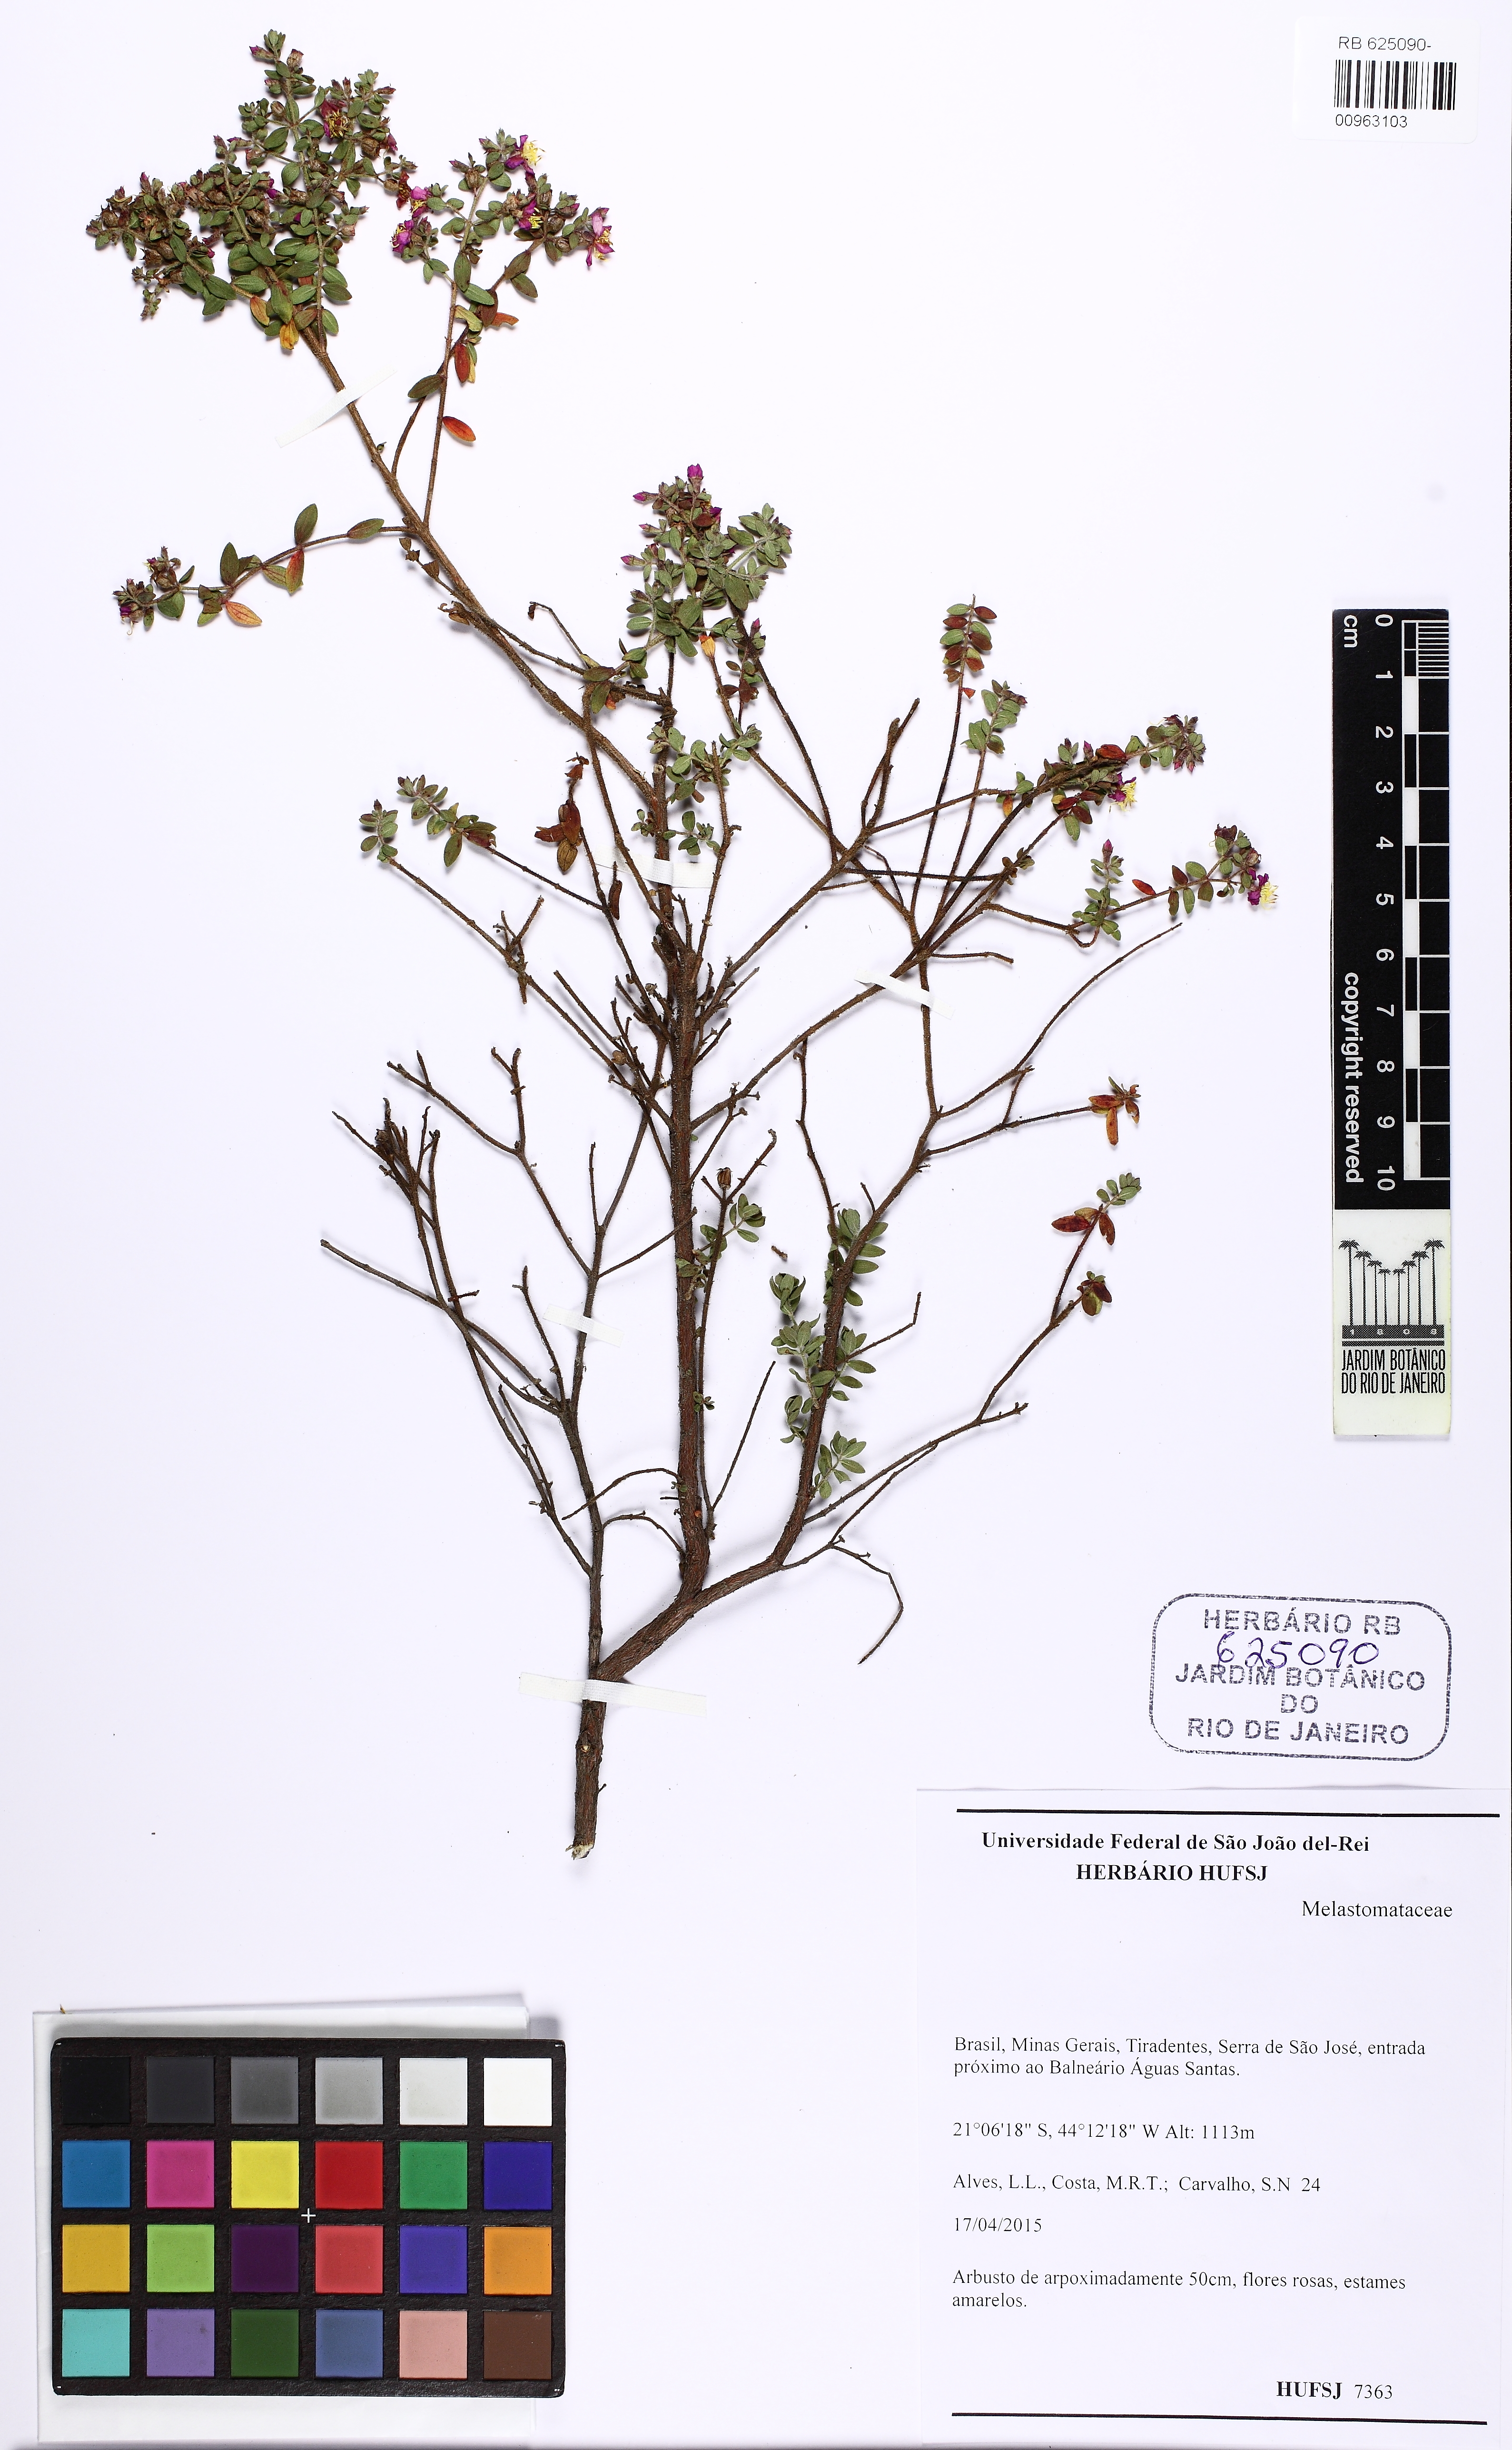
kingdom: Plantae
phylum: Tracheophyta
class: Magnoliopsida
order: Myrtales
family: Melastomataceae
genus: Microlicia
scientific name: Microlicia fulva
